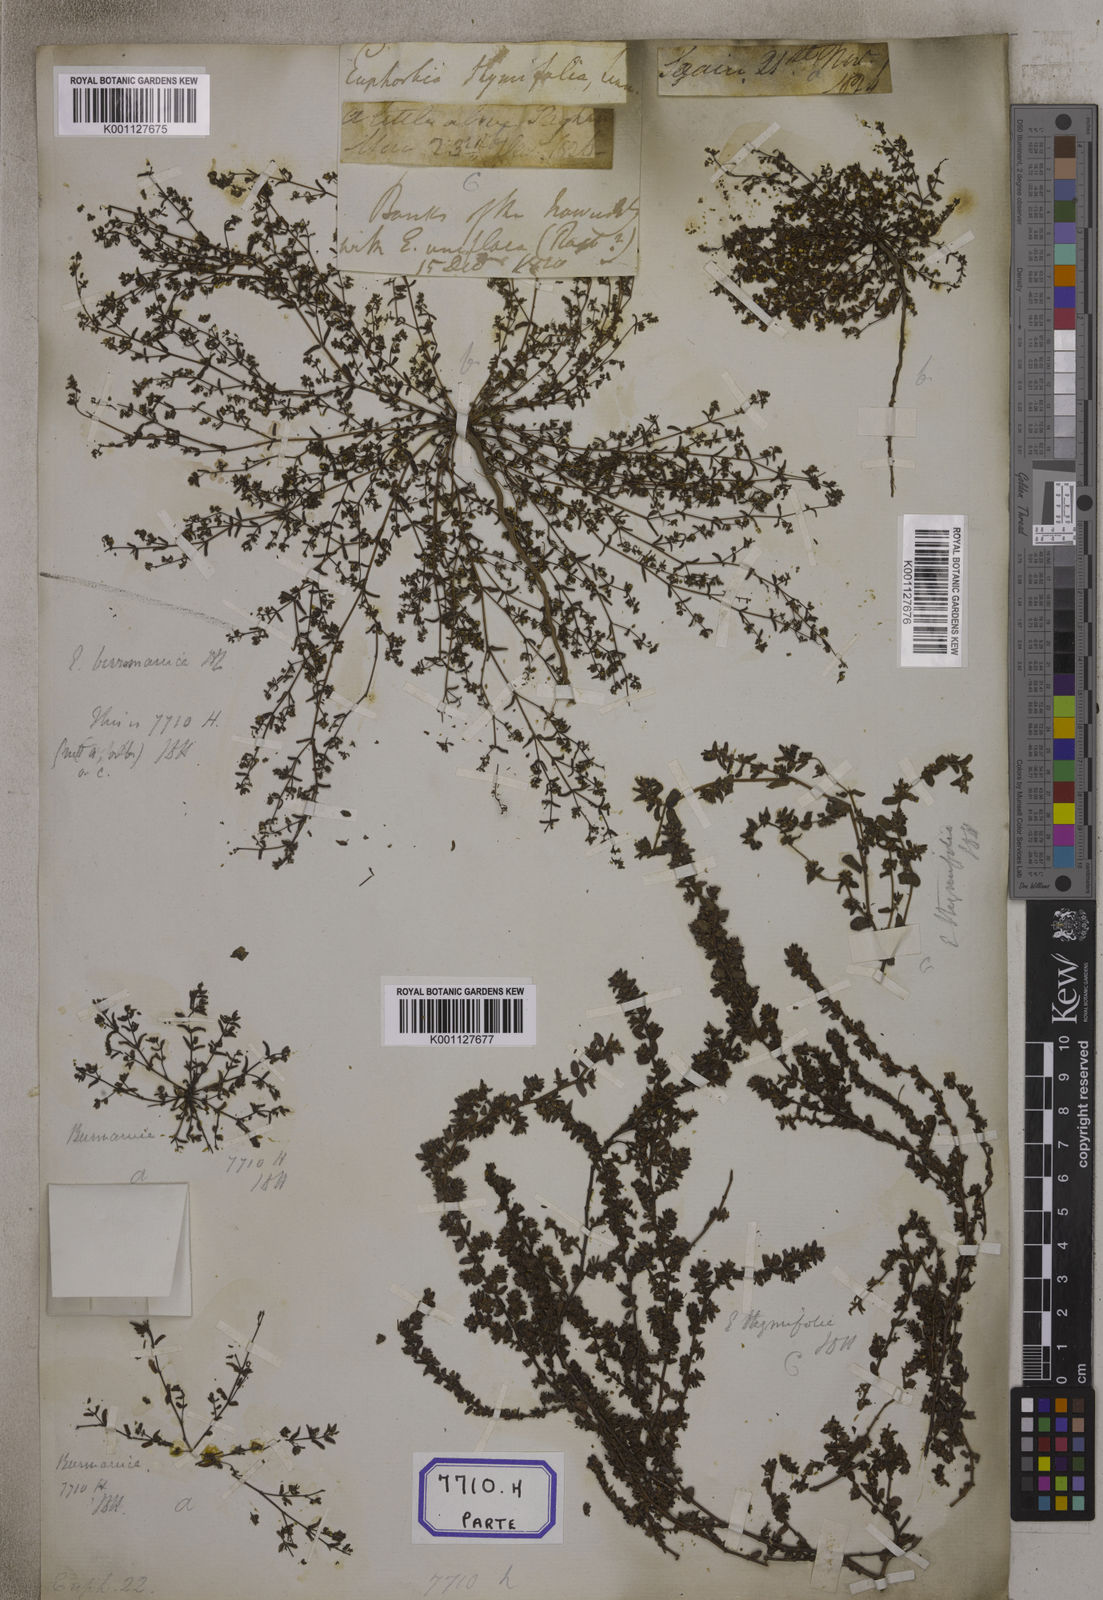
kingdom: Plantae
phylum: Tracheophyta
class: Magnoliopsida
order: Malpighiales
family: Euphorbiaceae
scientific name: Euphorbiaceae
